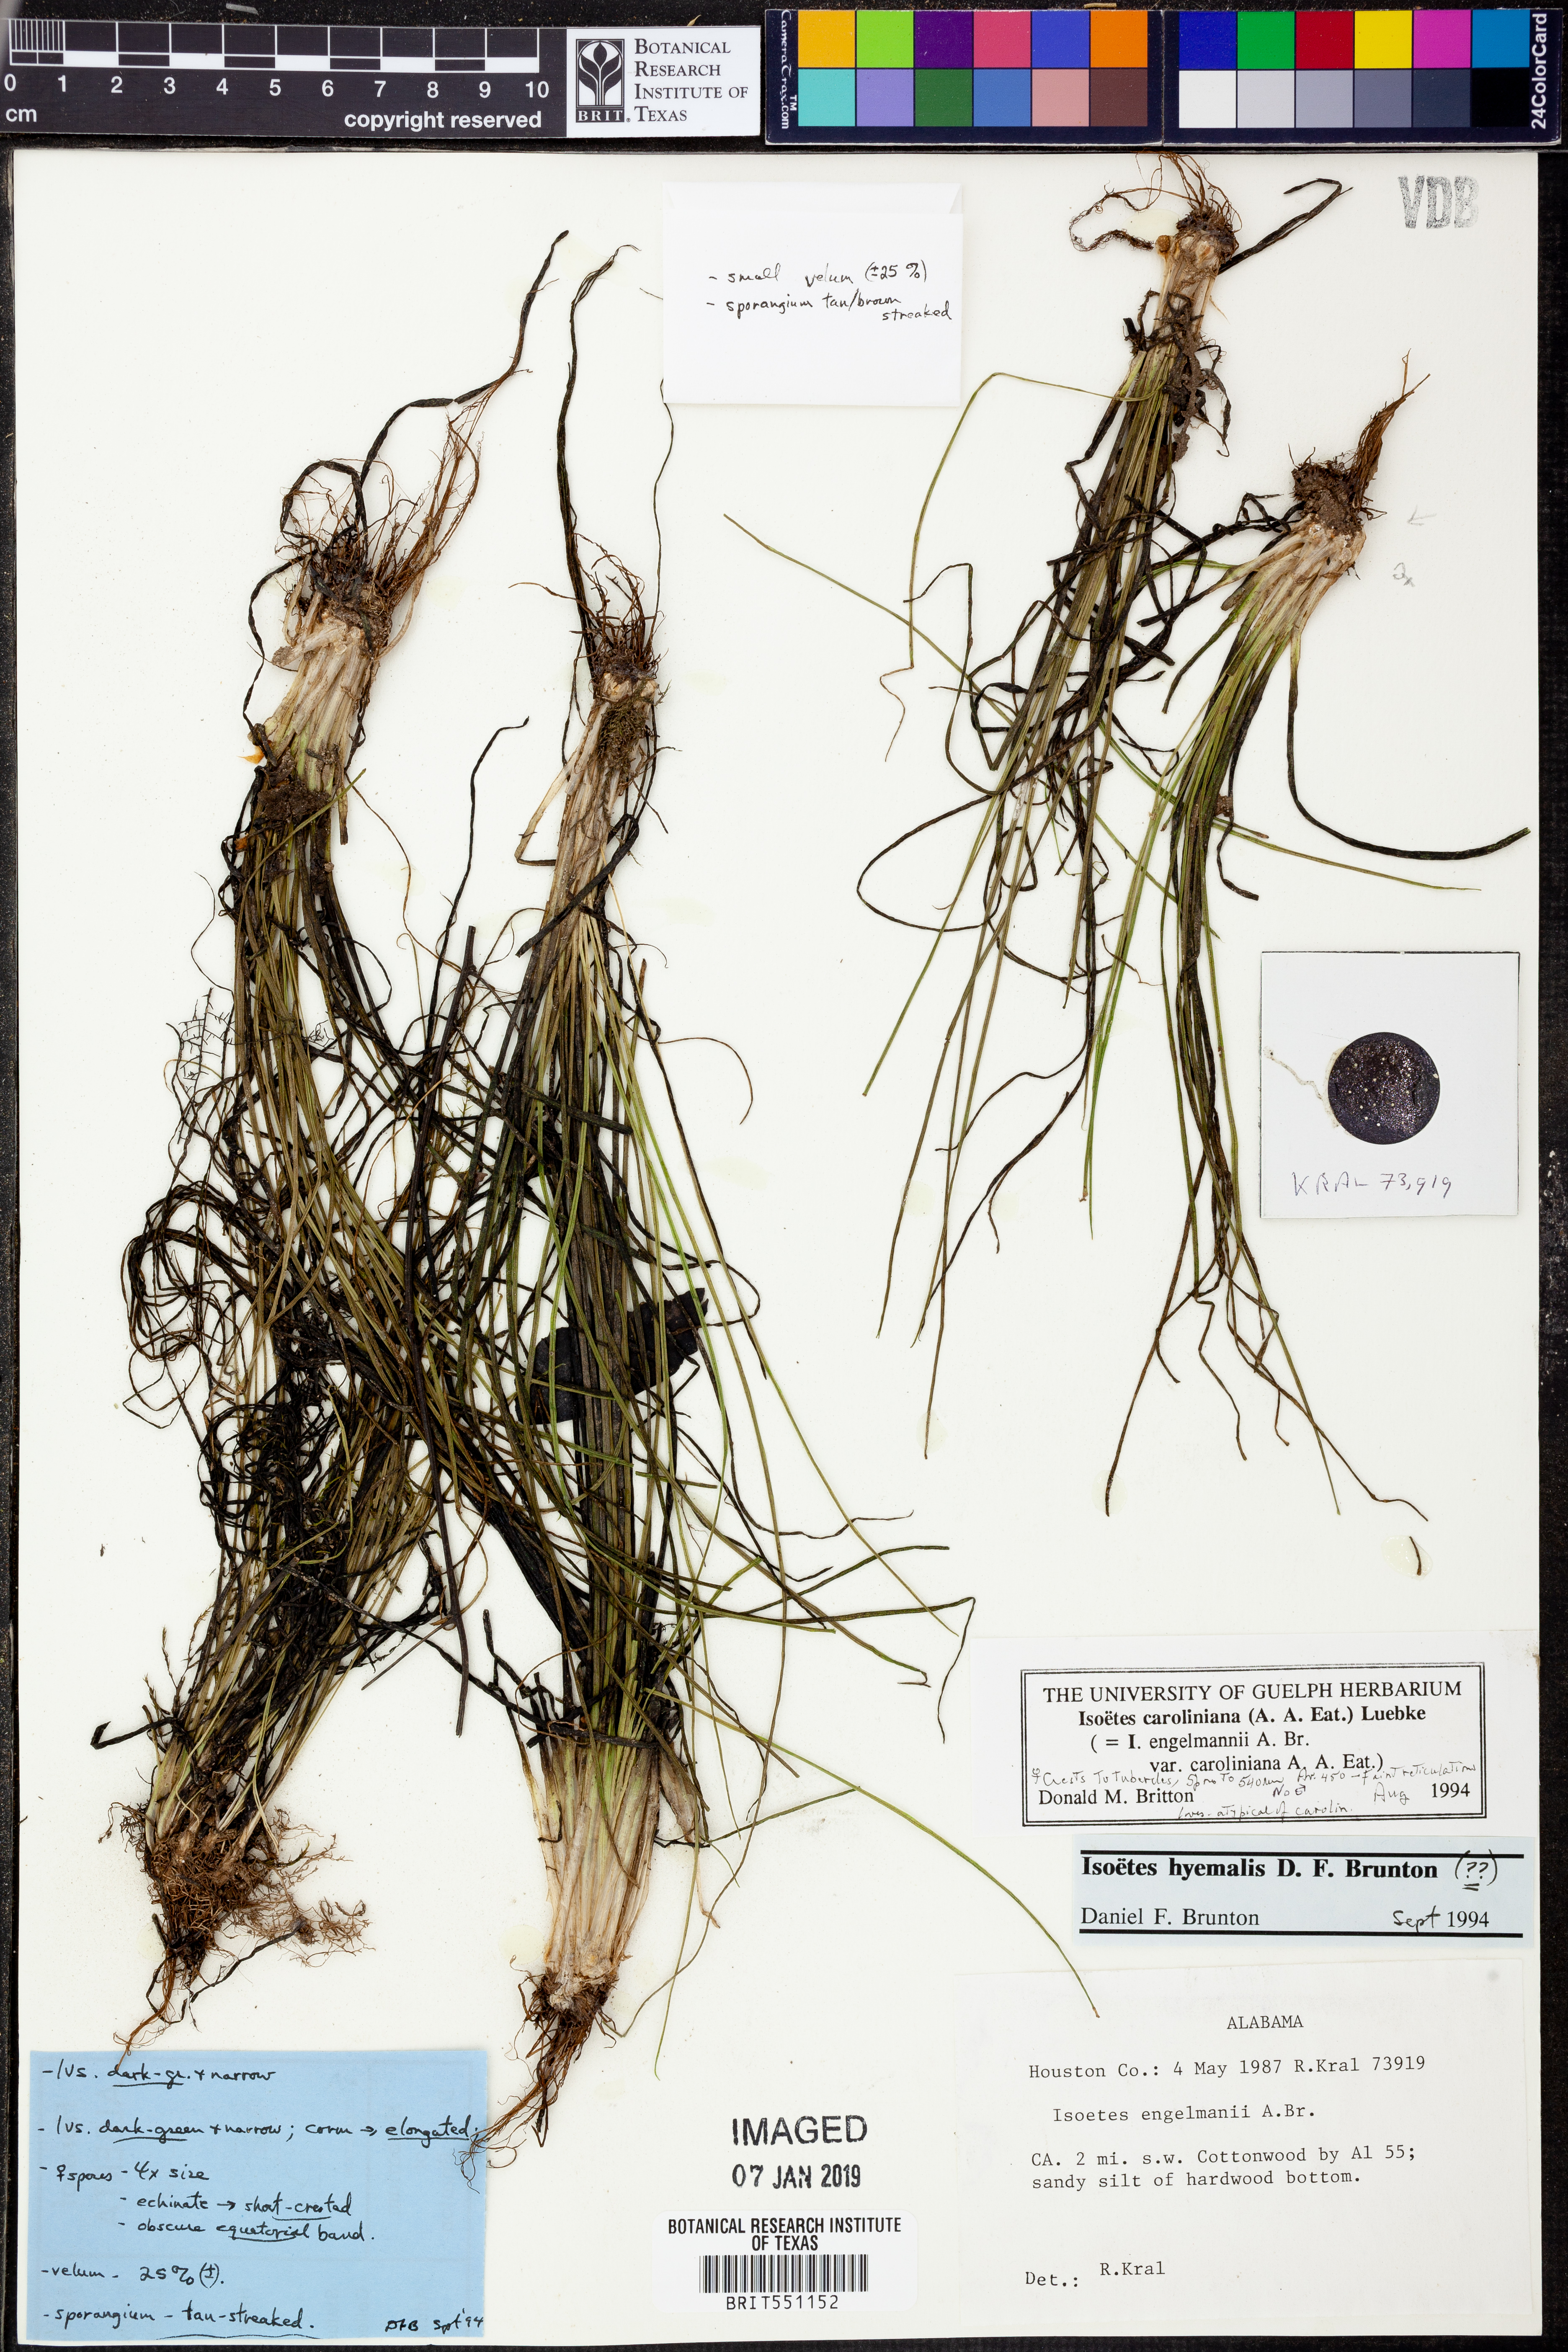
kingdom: Plantae
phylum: Tracheophyta
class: Lycopodiopsida
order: Isoetales
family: Isoetaceae
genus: Isoetes
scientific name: Isoetes caroliniana
